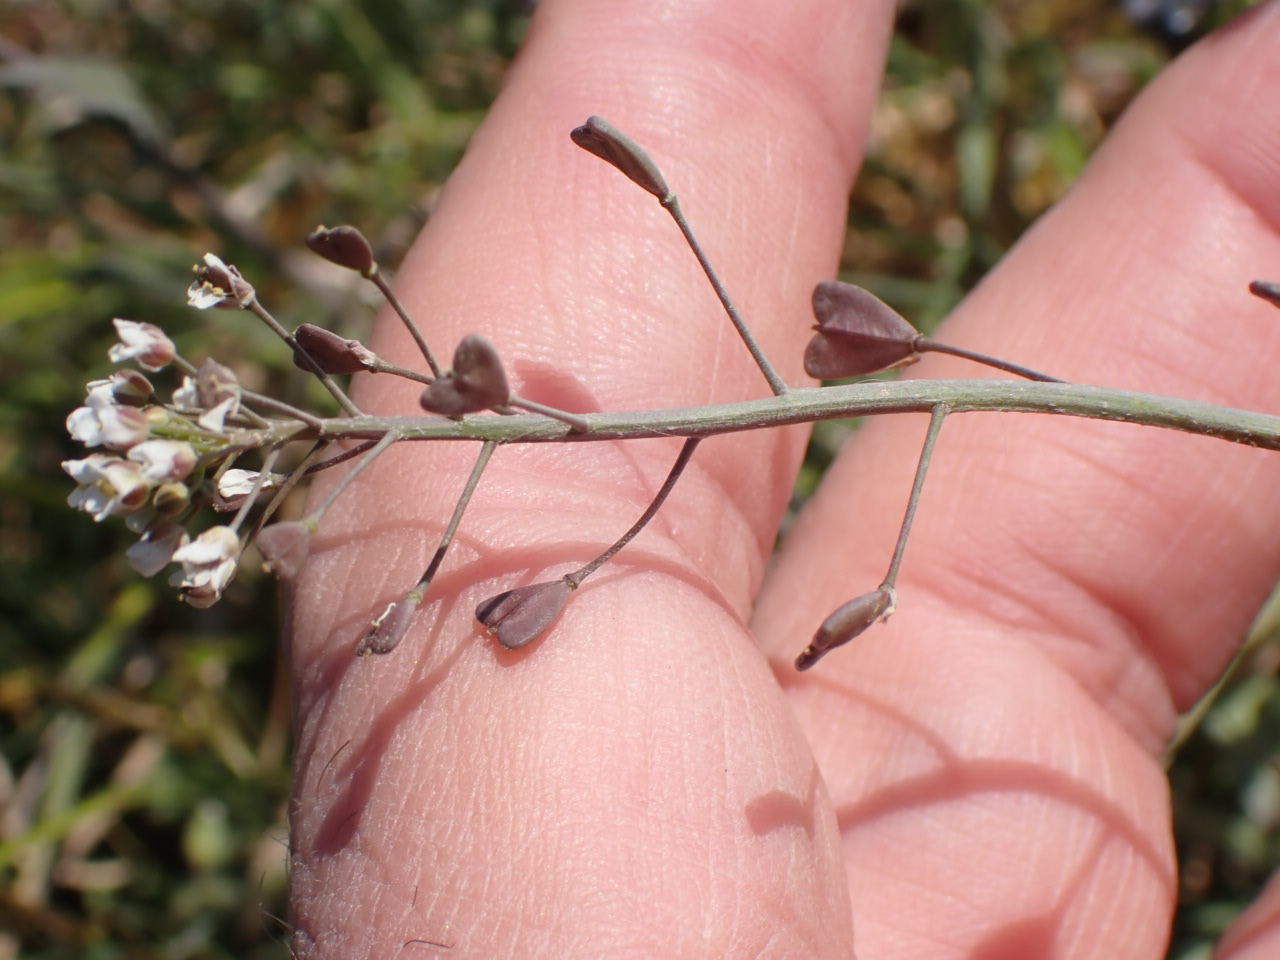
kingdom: Plantae
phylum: Tracheophyta
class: Magnoliopsida
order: Brassicales
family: Brassicaceae
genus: Capsella
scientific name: Capsella bursa-pastoris
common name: Hyrdetaske
